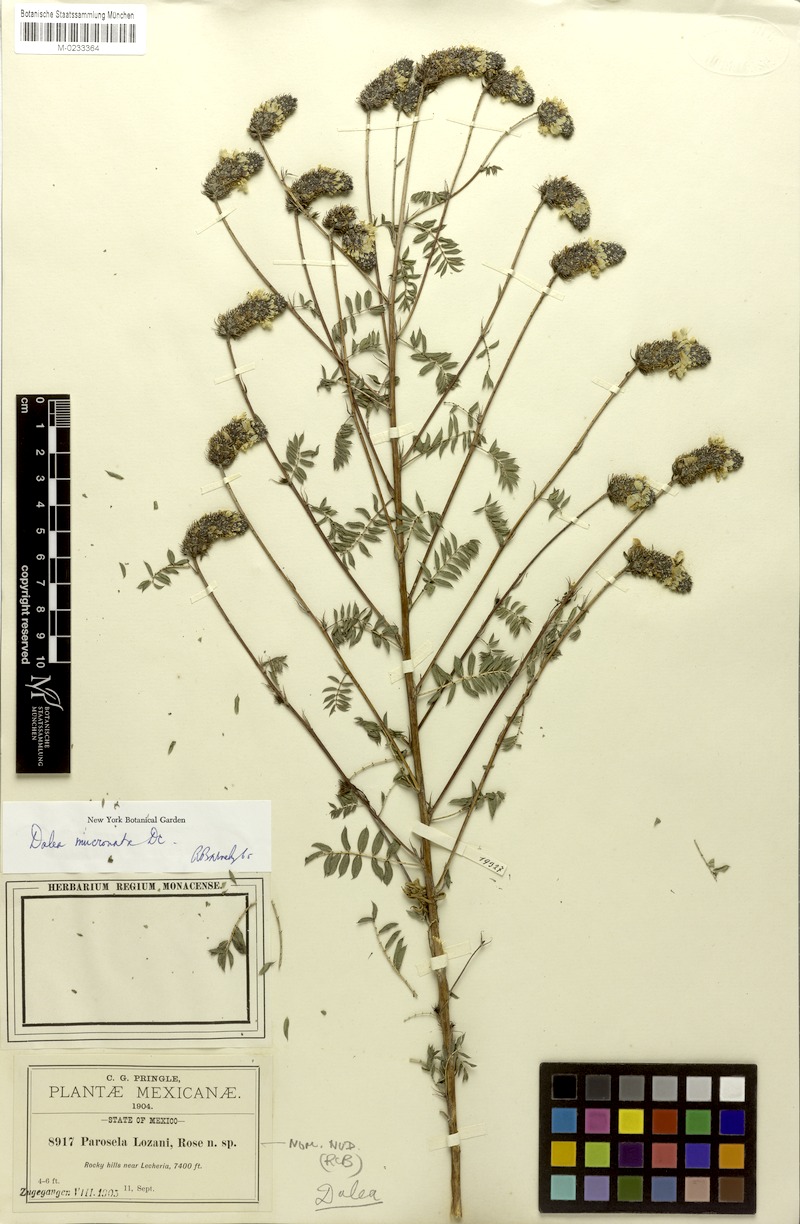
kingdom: Plantae
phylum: Tracheophyta
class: Magnoliopsida
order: Fabales
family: Fabaceae
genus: Dalea
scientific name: Dalea mucronata
